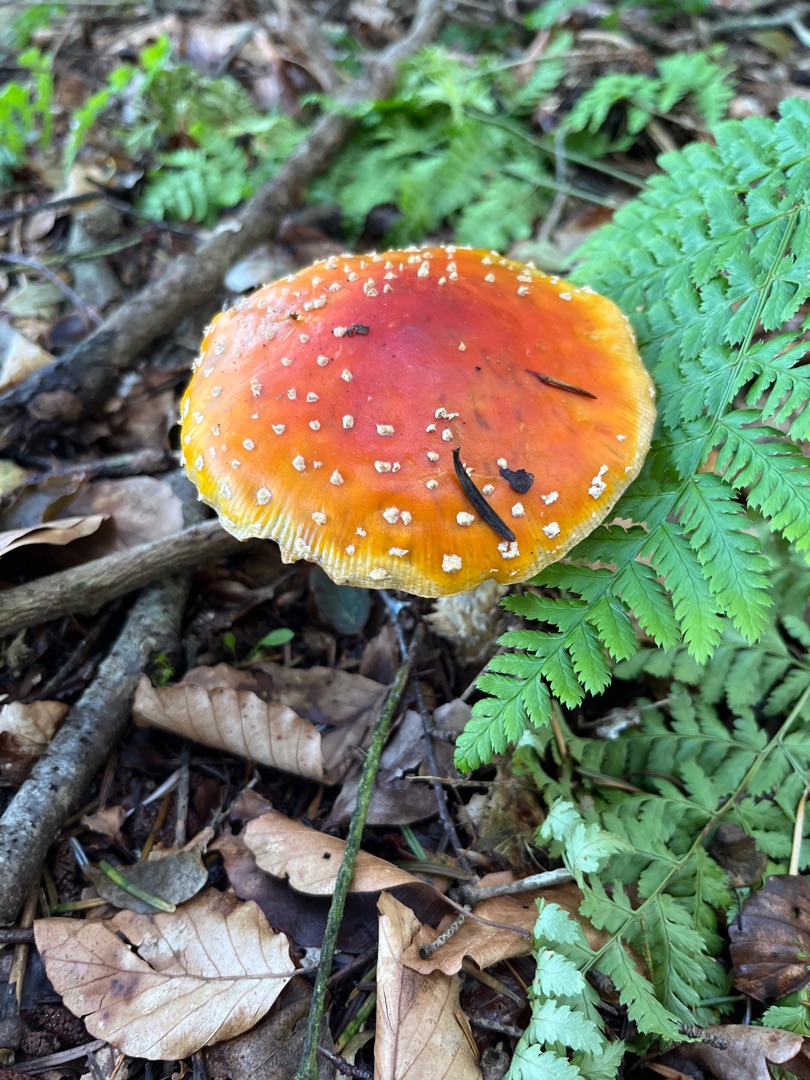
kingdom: Fungi
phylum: Basidiomycota
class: Agaricomycetes
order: Agaricales
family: Amanitaceae
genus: Amanita
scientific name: Amanita muscaria
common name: Rød fluesvamp
